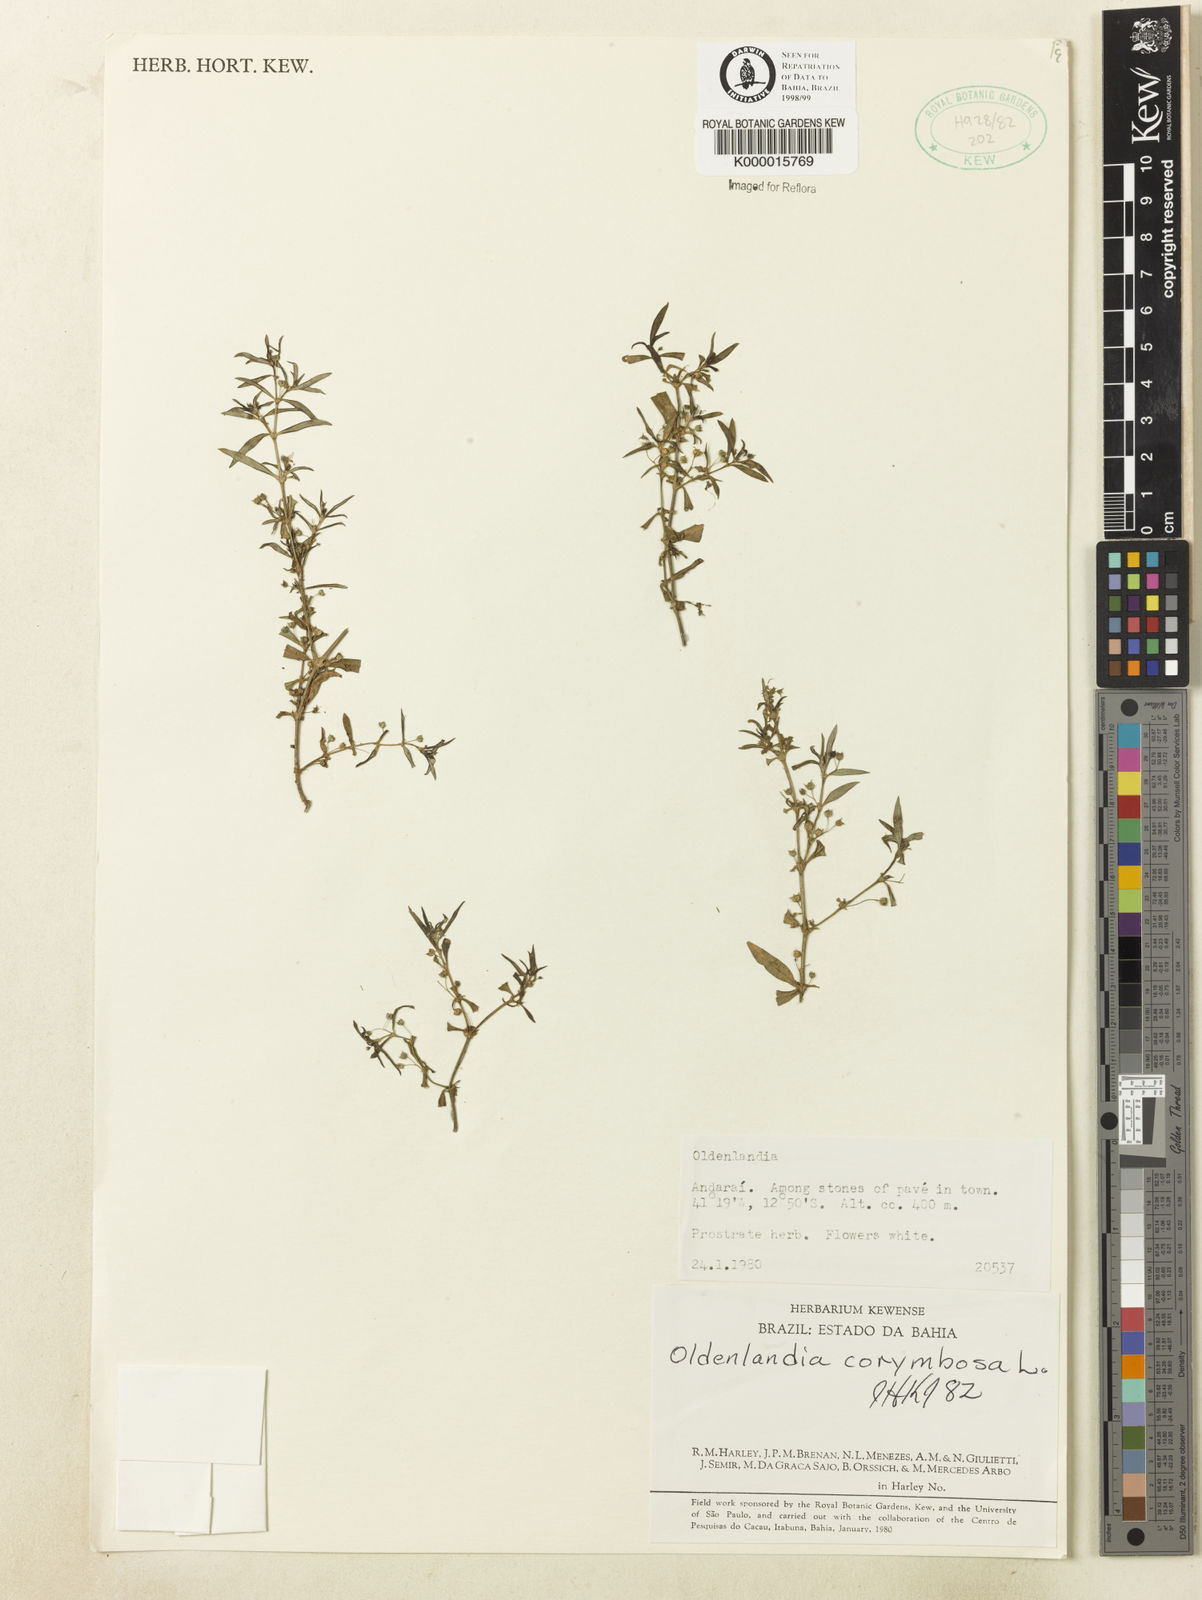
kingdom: Plantae
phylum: Tracheophyta
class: Magnoliopsida
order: Gentianales
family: Rubiaceae
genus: Oldenlandia
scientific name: Oldenlandia corymbosa
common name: Flat-top mille graines
